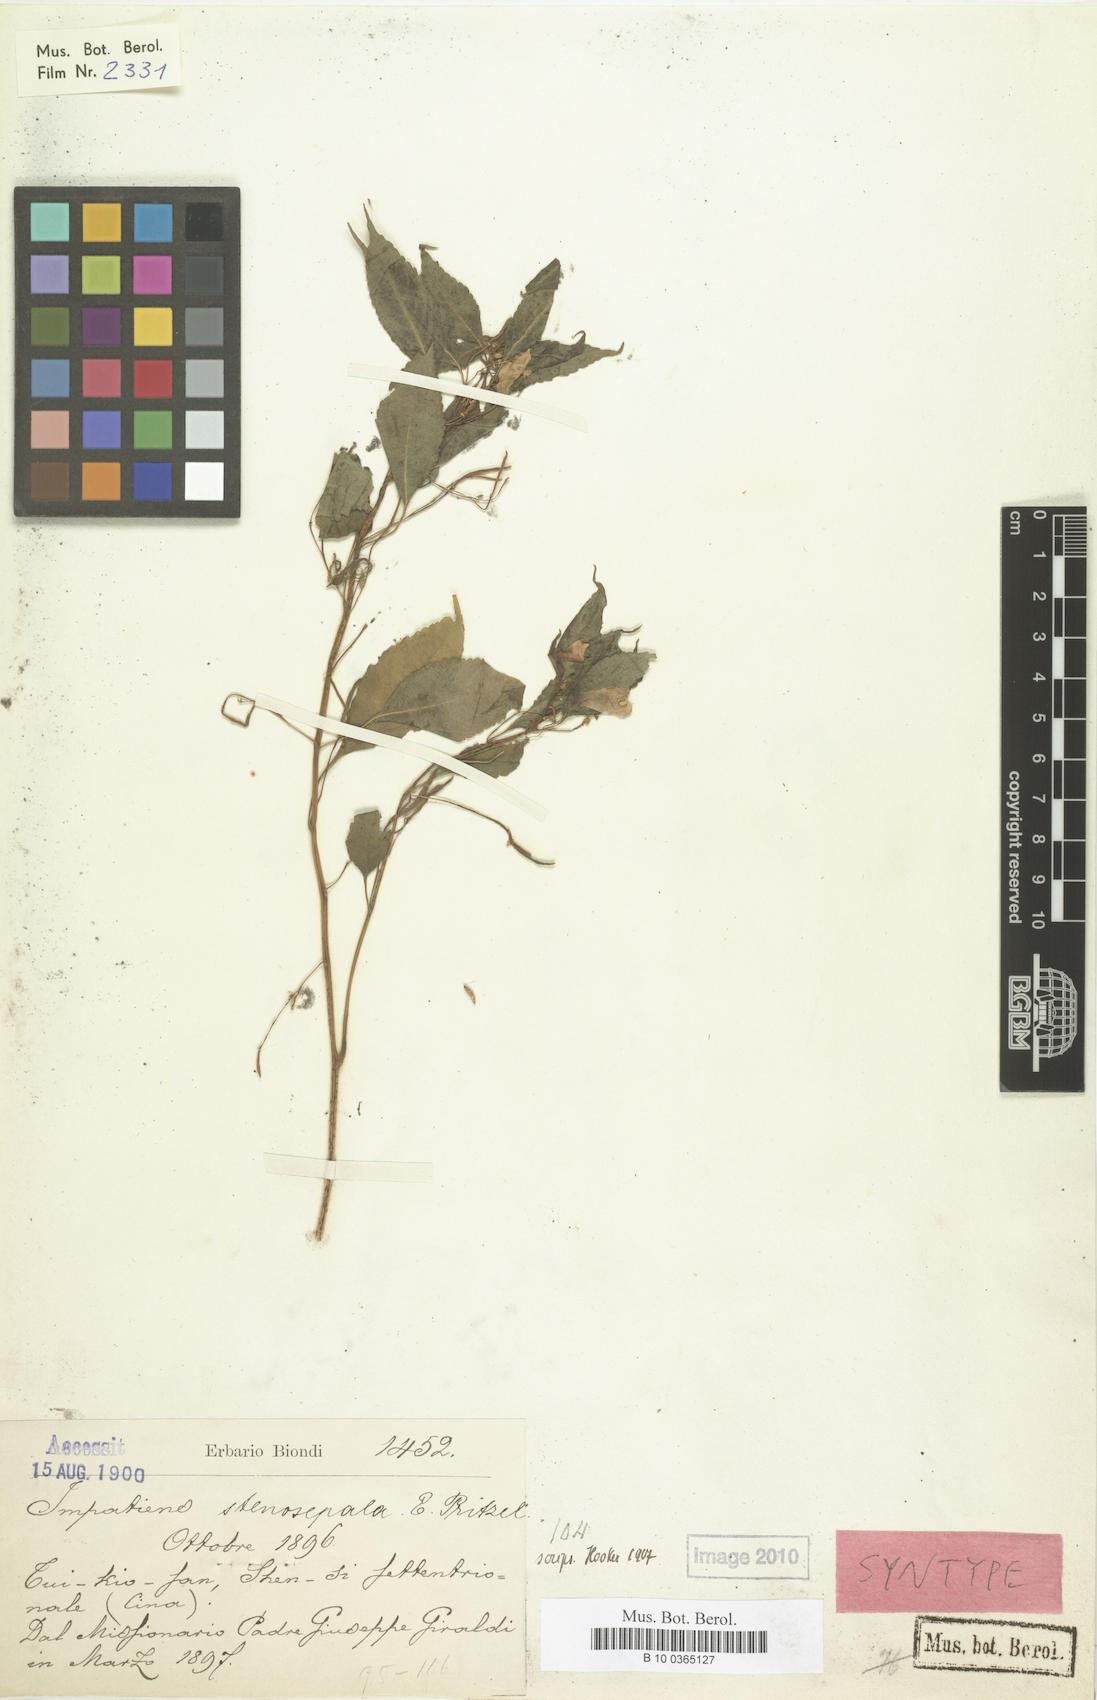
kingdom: Plantae
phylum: Tracheophyta
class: Magnoliopsida
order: Ericales
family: Balsaminaceae
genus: Impatiens
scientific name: Impatiens stenosepala
